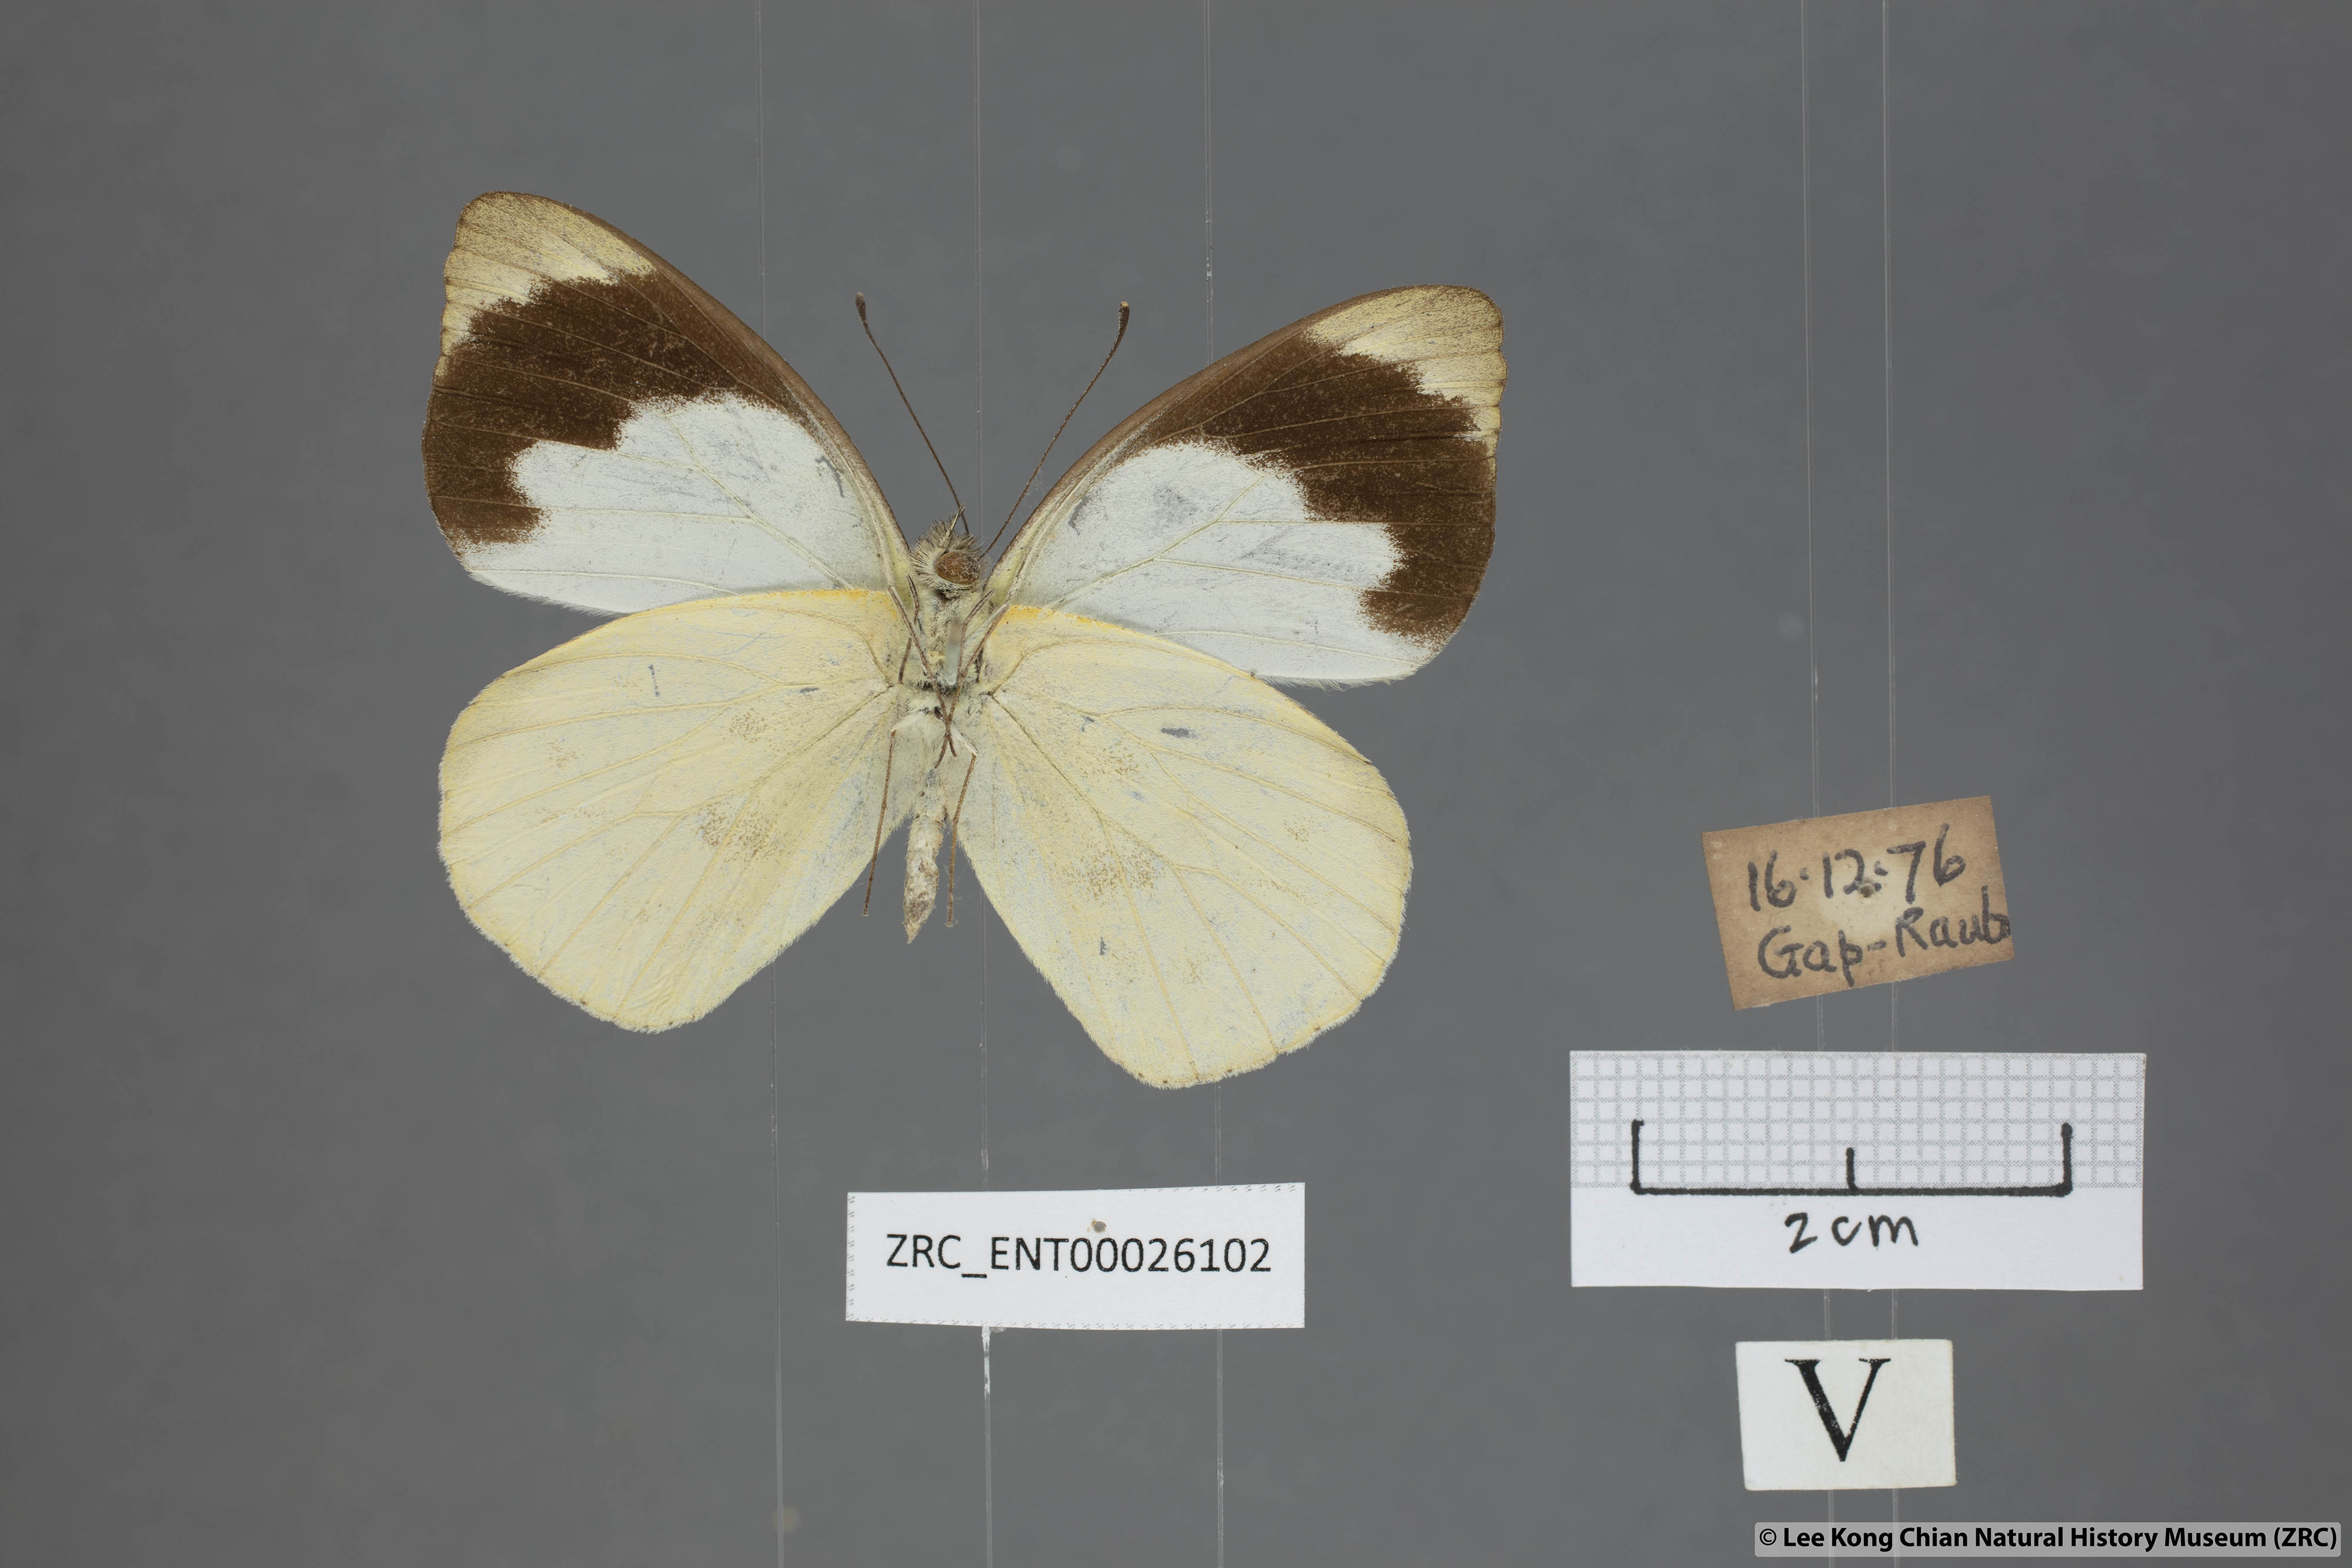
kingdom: Animalia
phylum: Arthropoda
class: Insecta
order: Lepidoptera
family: Pieridae
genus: Appias
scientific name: Appias indra
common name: Plain puffin
